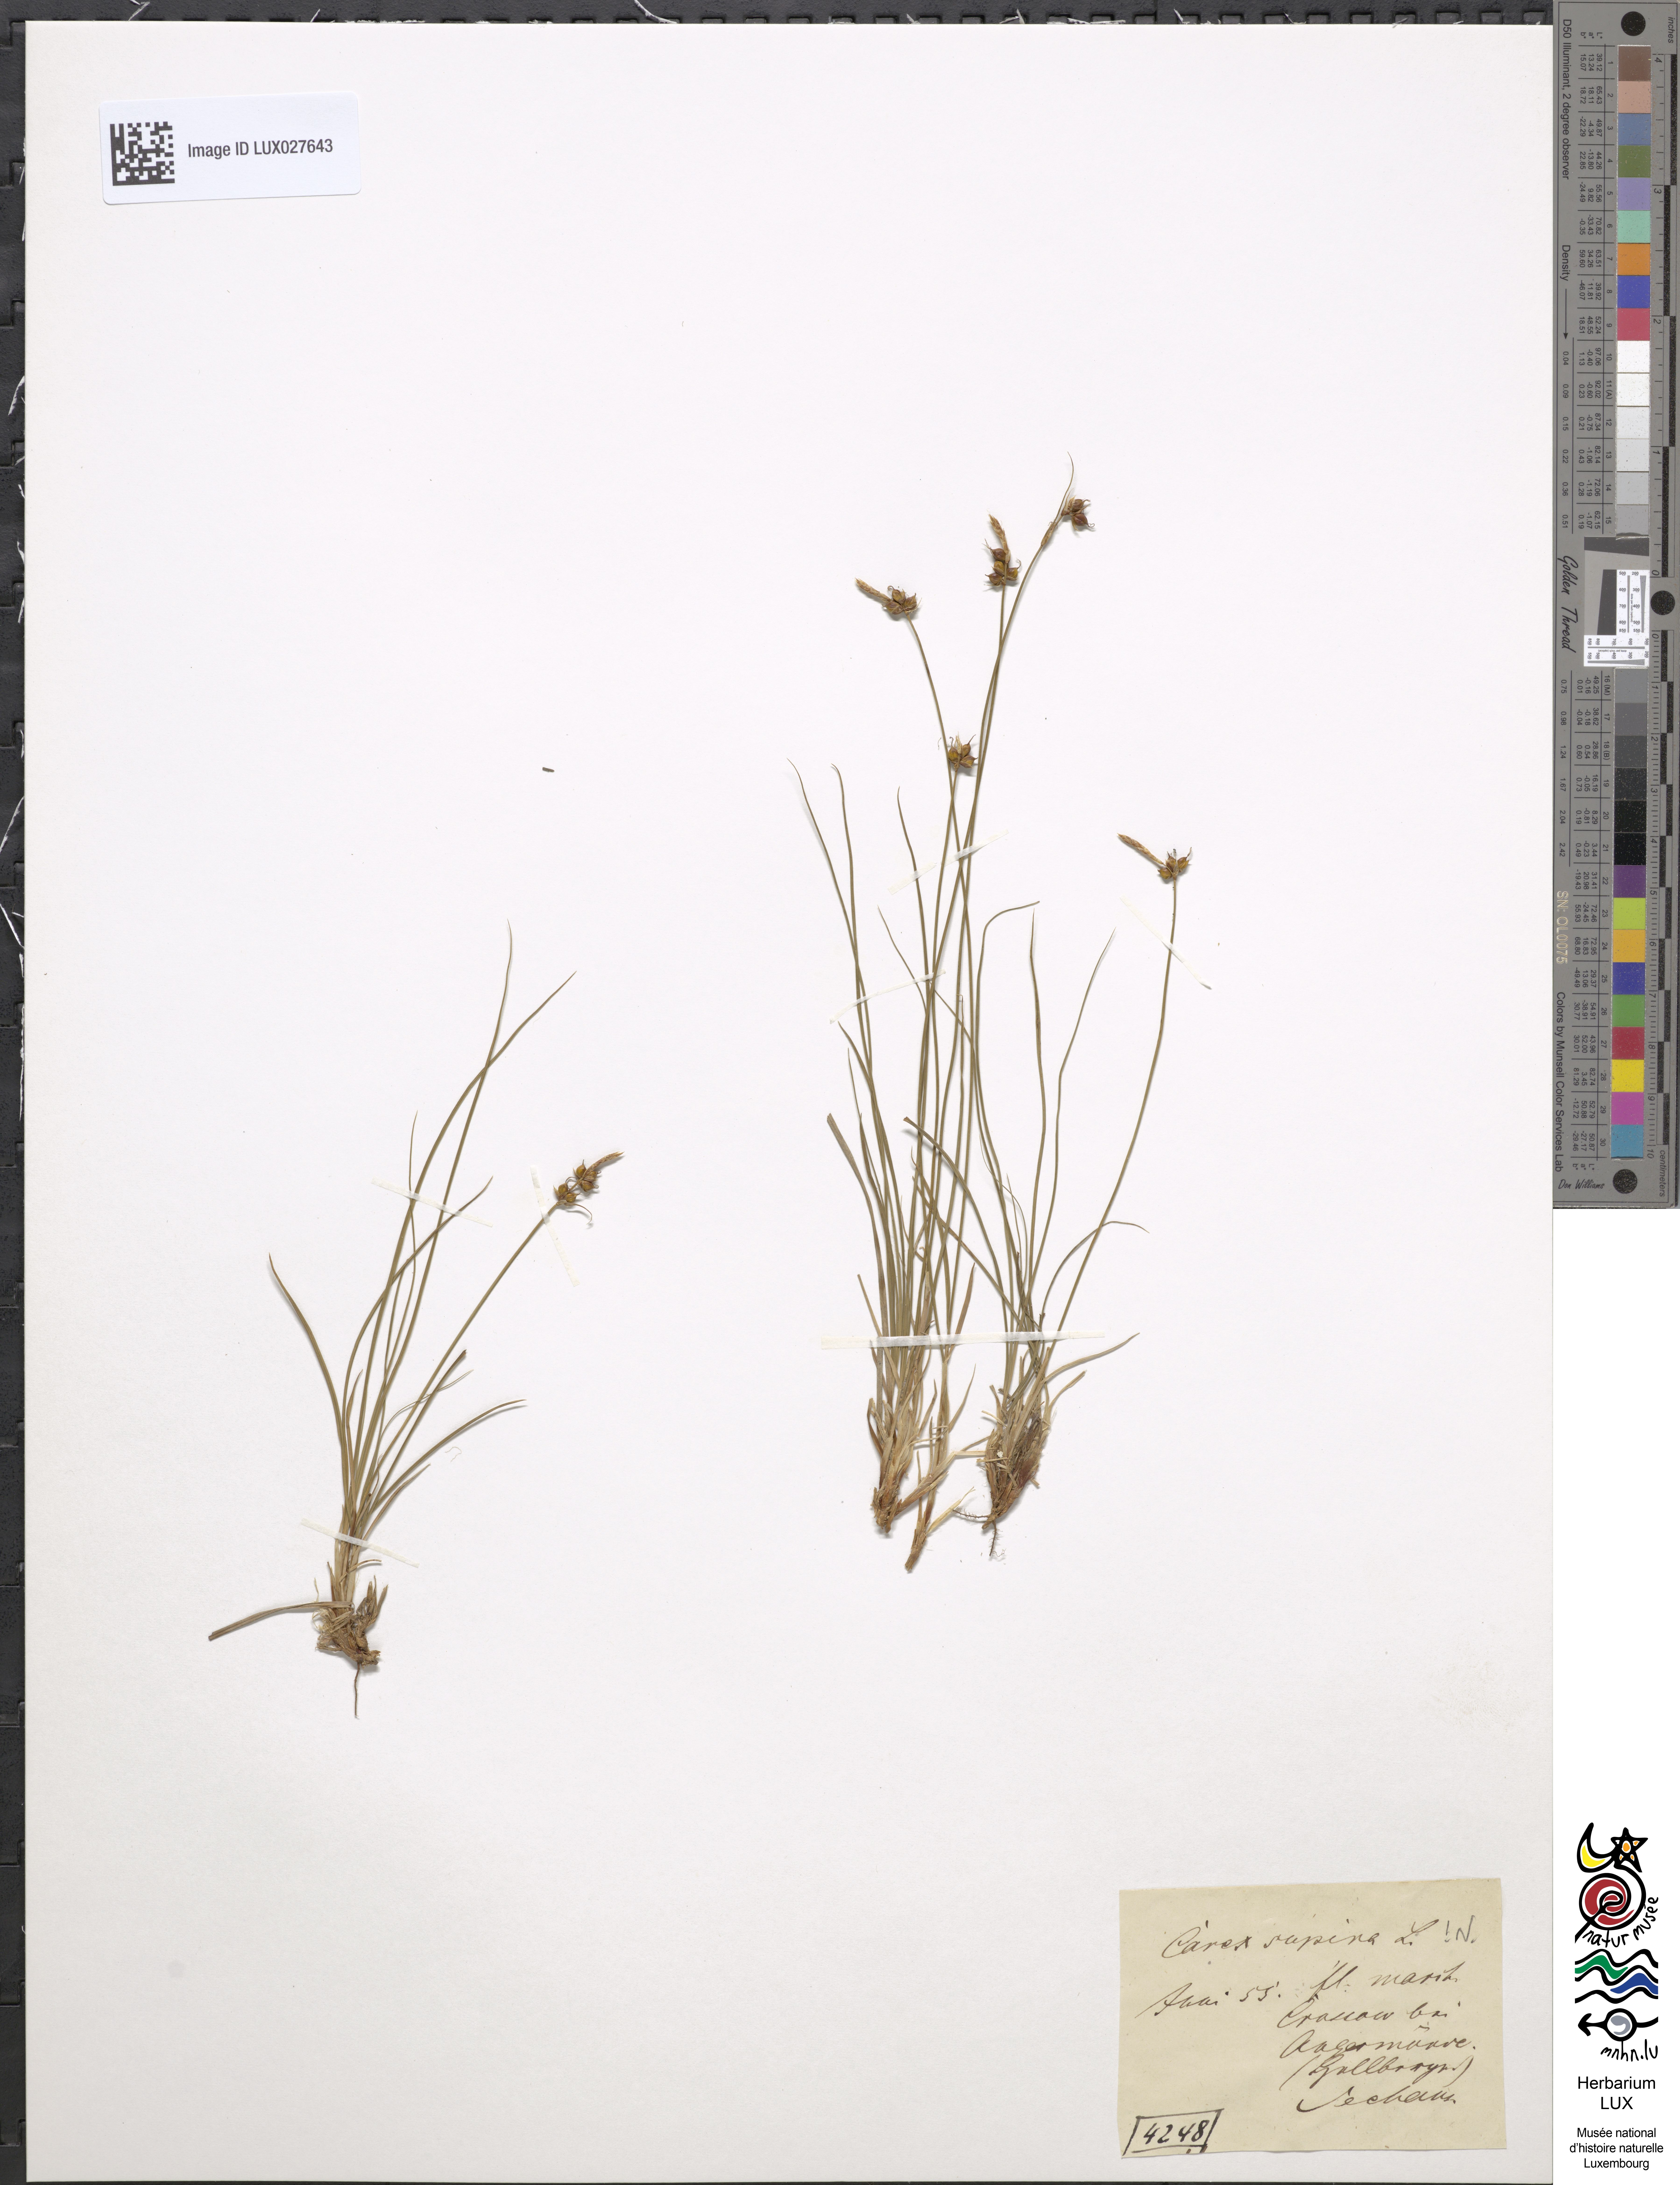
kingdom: Plantae
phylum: Tracheophyta
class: Liliopsida
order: Poales
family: Cyperaceae
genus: Carex
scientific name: Carex supina
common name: Lying-back sedge
